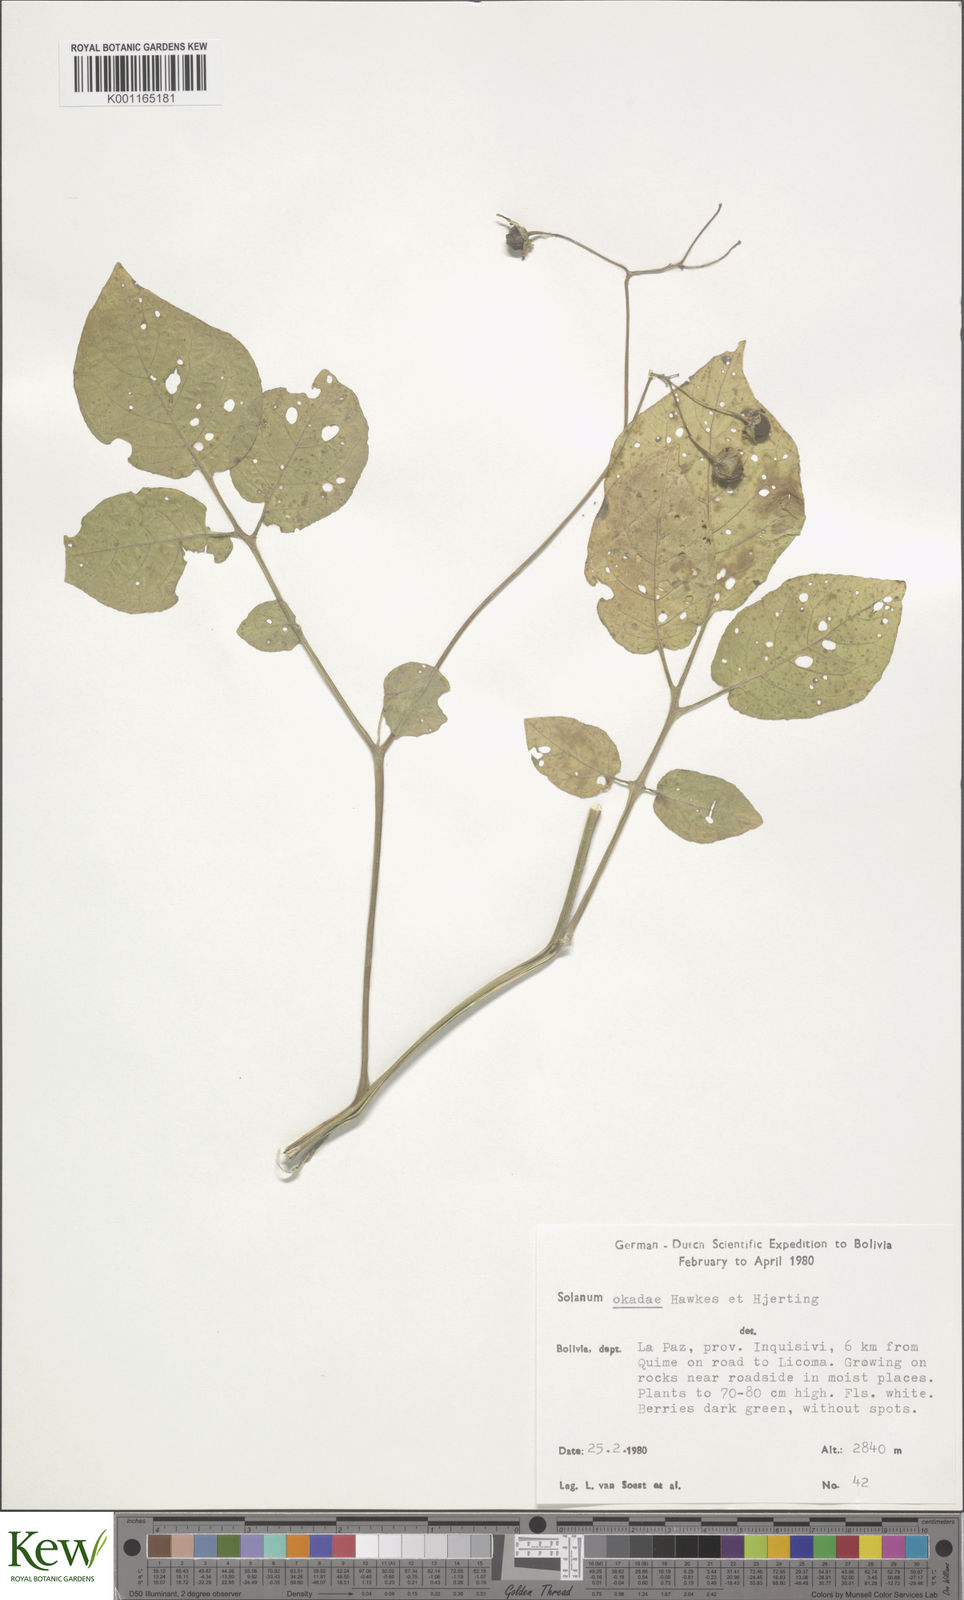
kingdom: Plantae
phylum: Tracheophyta
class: Magnoliopsida
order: Solanales
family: Solanaceae
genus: Solanum
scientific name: Solanum okadae
